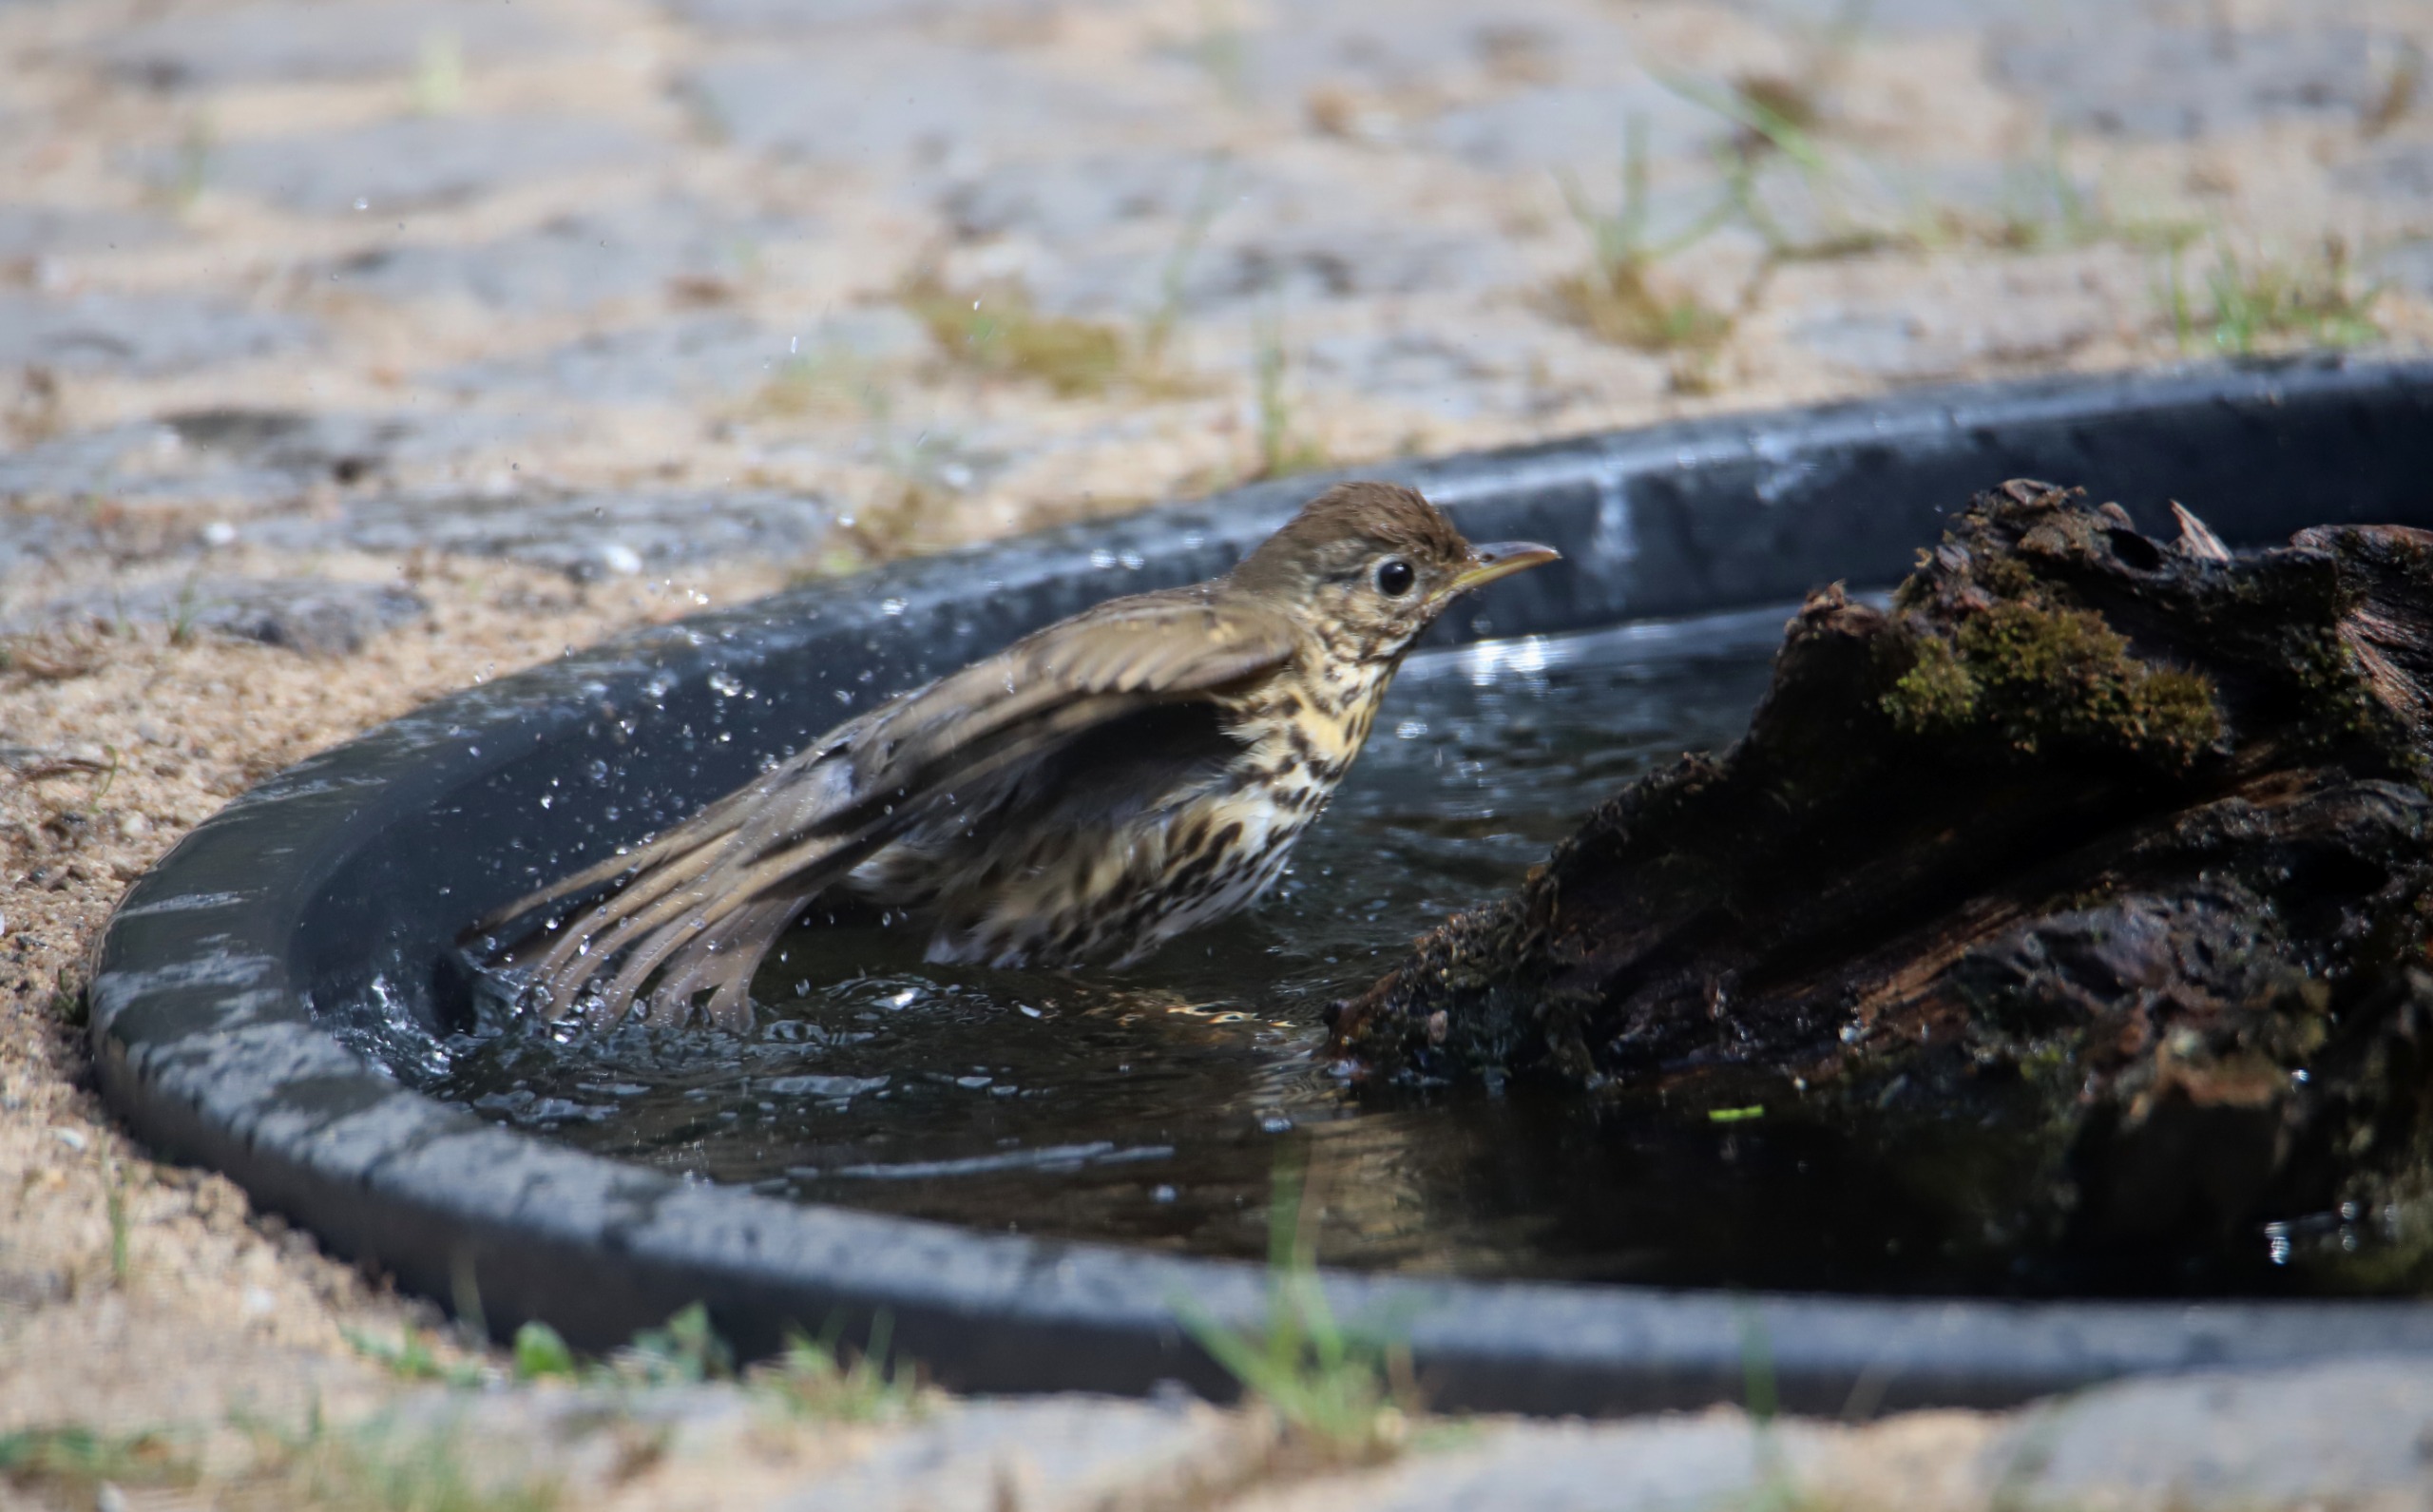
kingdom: Animalia
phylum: Chordata
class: Aves
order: Passeriformes
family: Turdidae
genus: Turdus
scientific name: Turdus philomelos
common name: Sangdrossel
